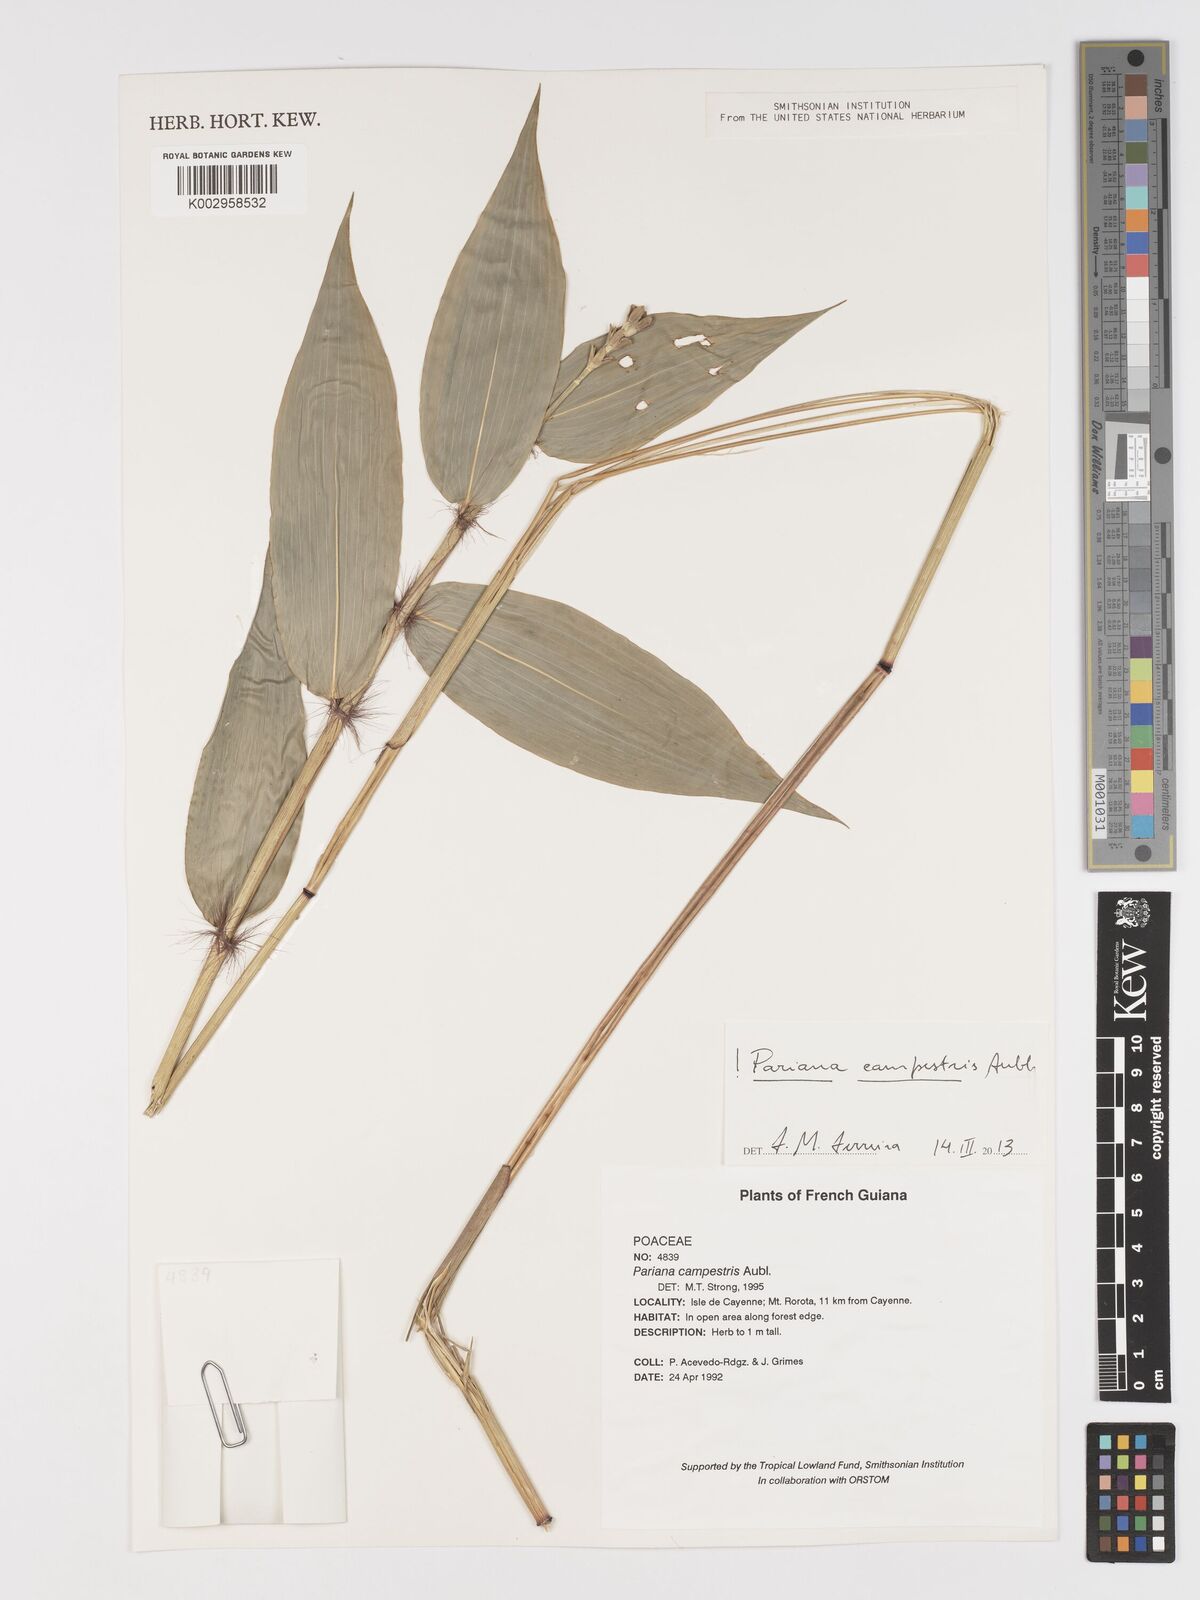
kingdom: Plantae
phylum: Tracheophyta
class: Liliopsida
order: Poales
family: Poaceae
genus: Pariana
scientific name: Pariana campestris
